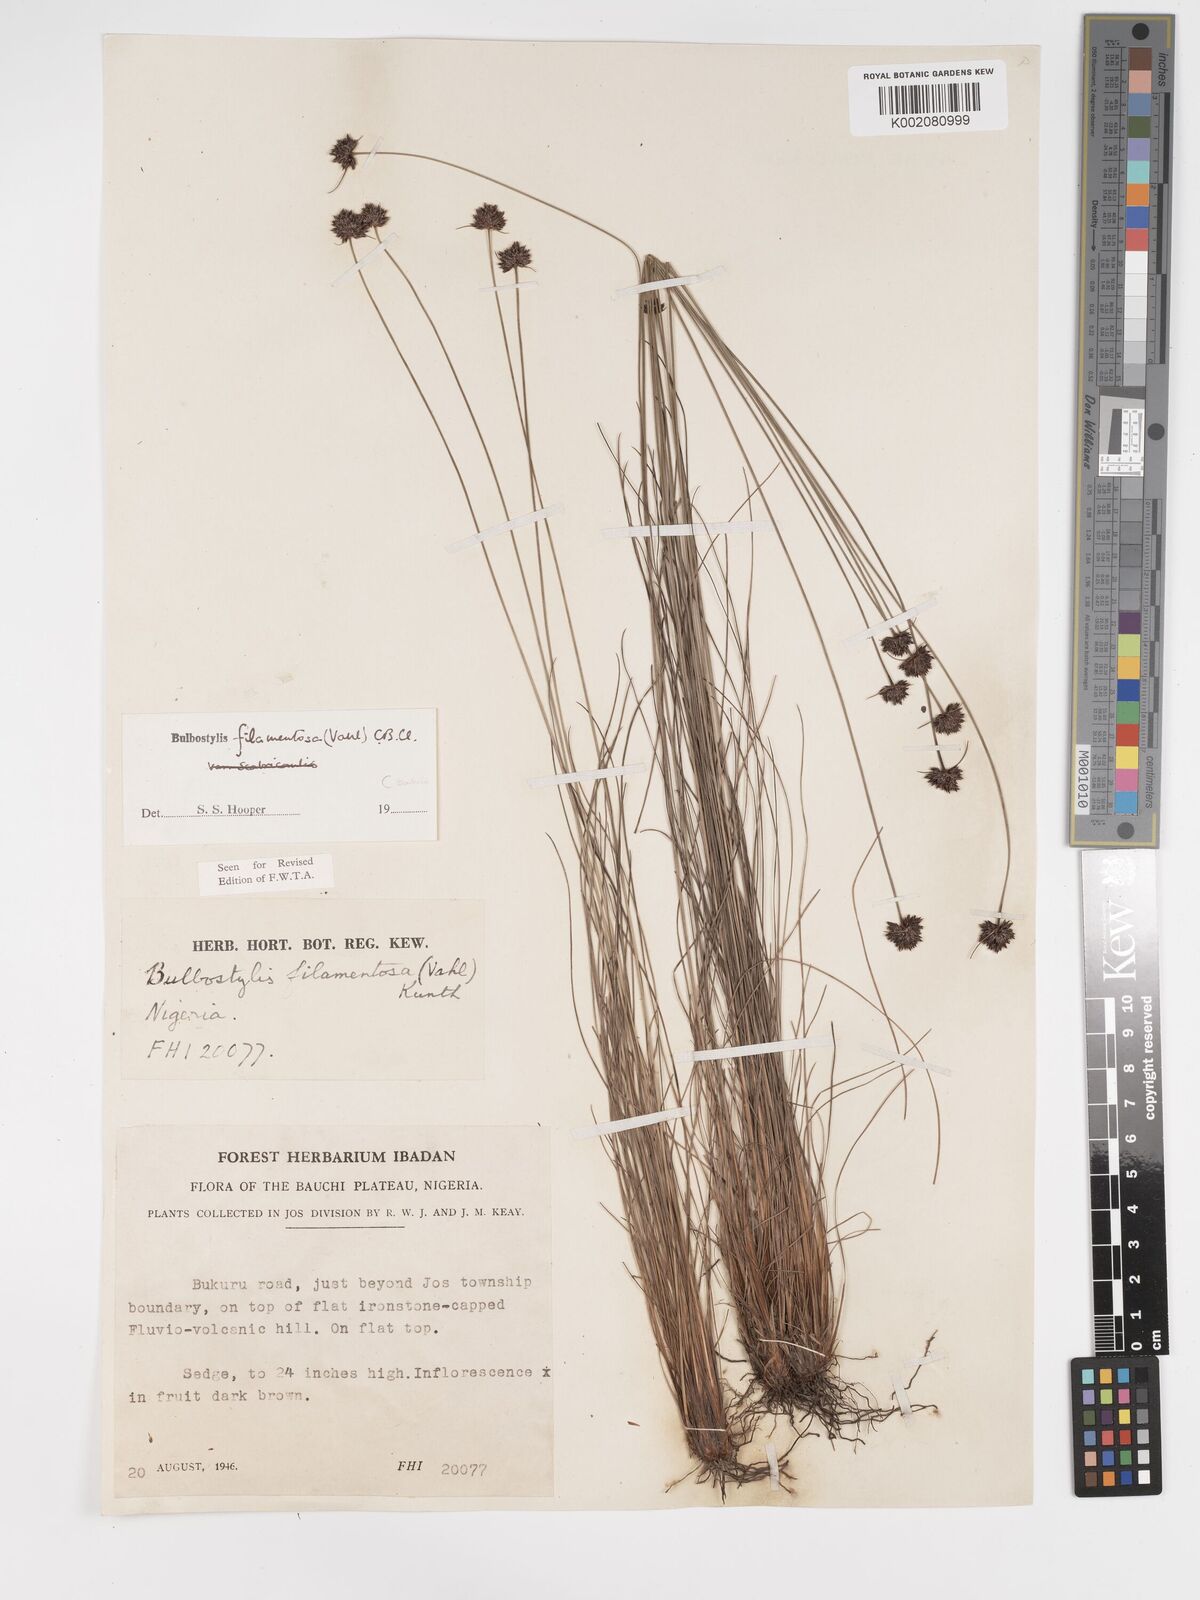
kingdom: Plantae
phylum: Tracheophyta
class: Liliopsida
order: Poales
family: Cyperaceae
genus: Bulbostylis
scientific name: Bulbostylis filamentosa
